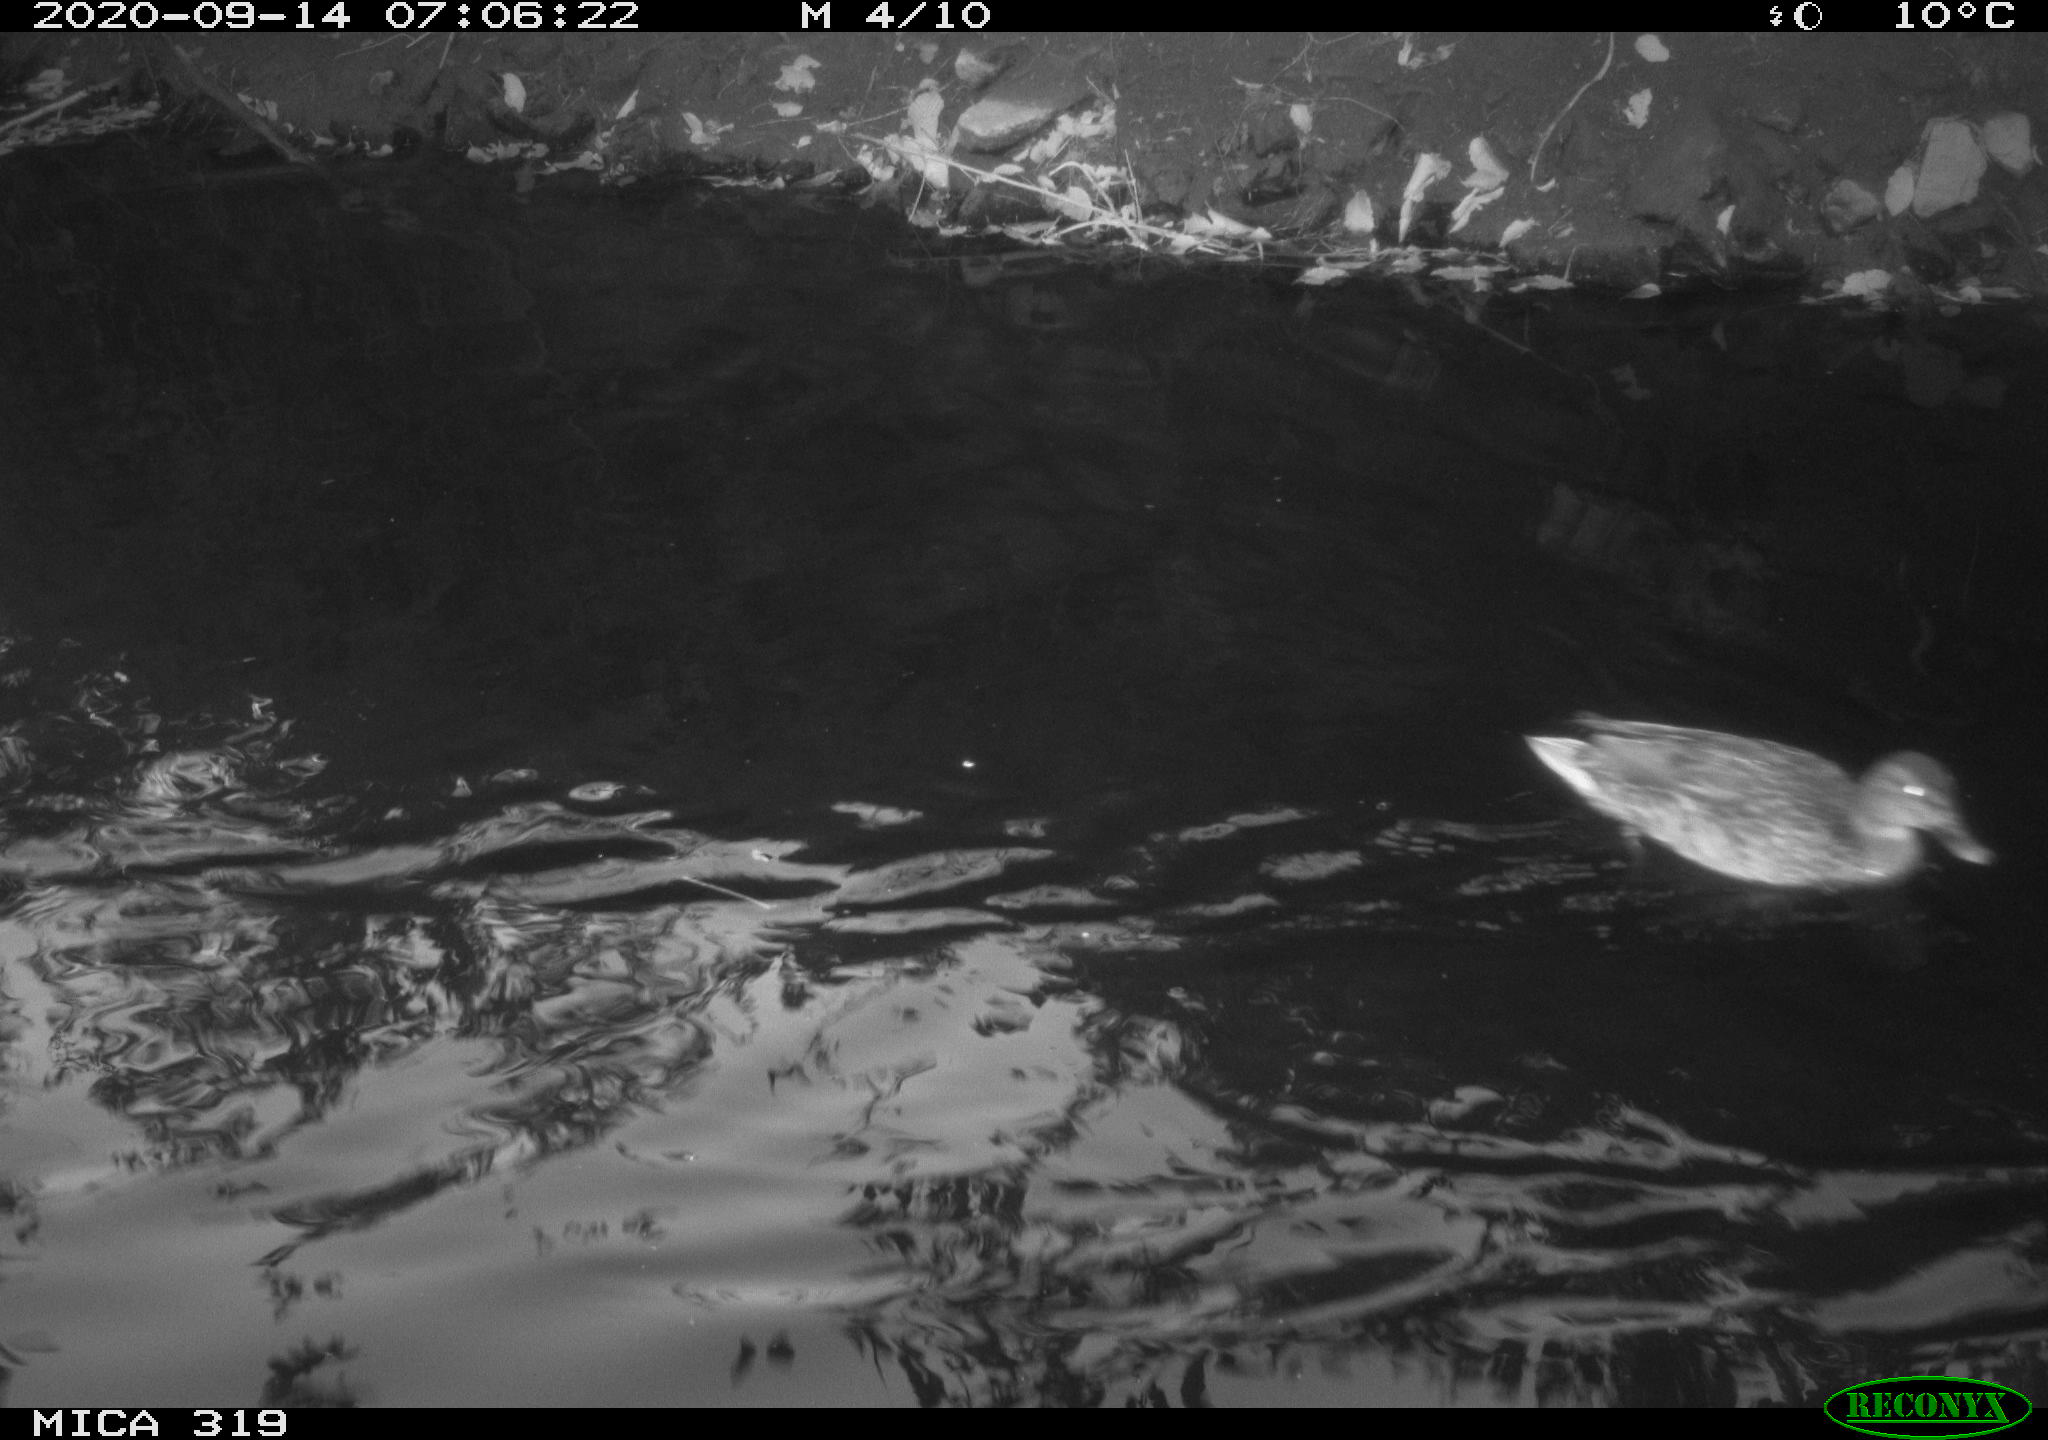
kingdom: Animalia
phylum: Chordata
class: Aves
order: Anseriformes
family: Anatidae
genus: Anas
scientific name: Anas platyrhynchos
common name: Mallard
